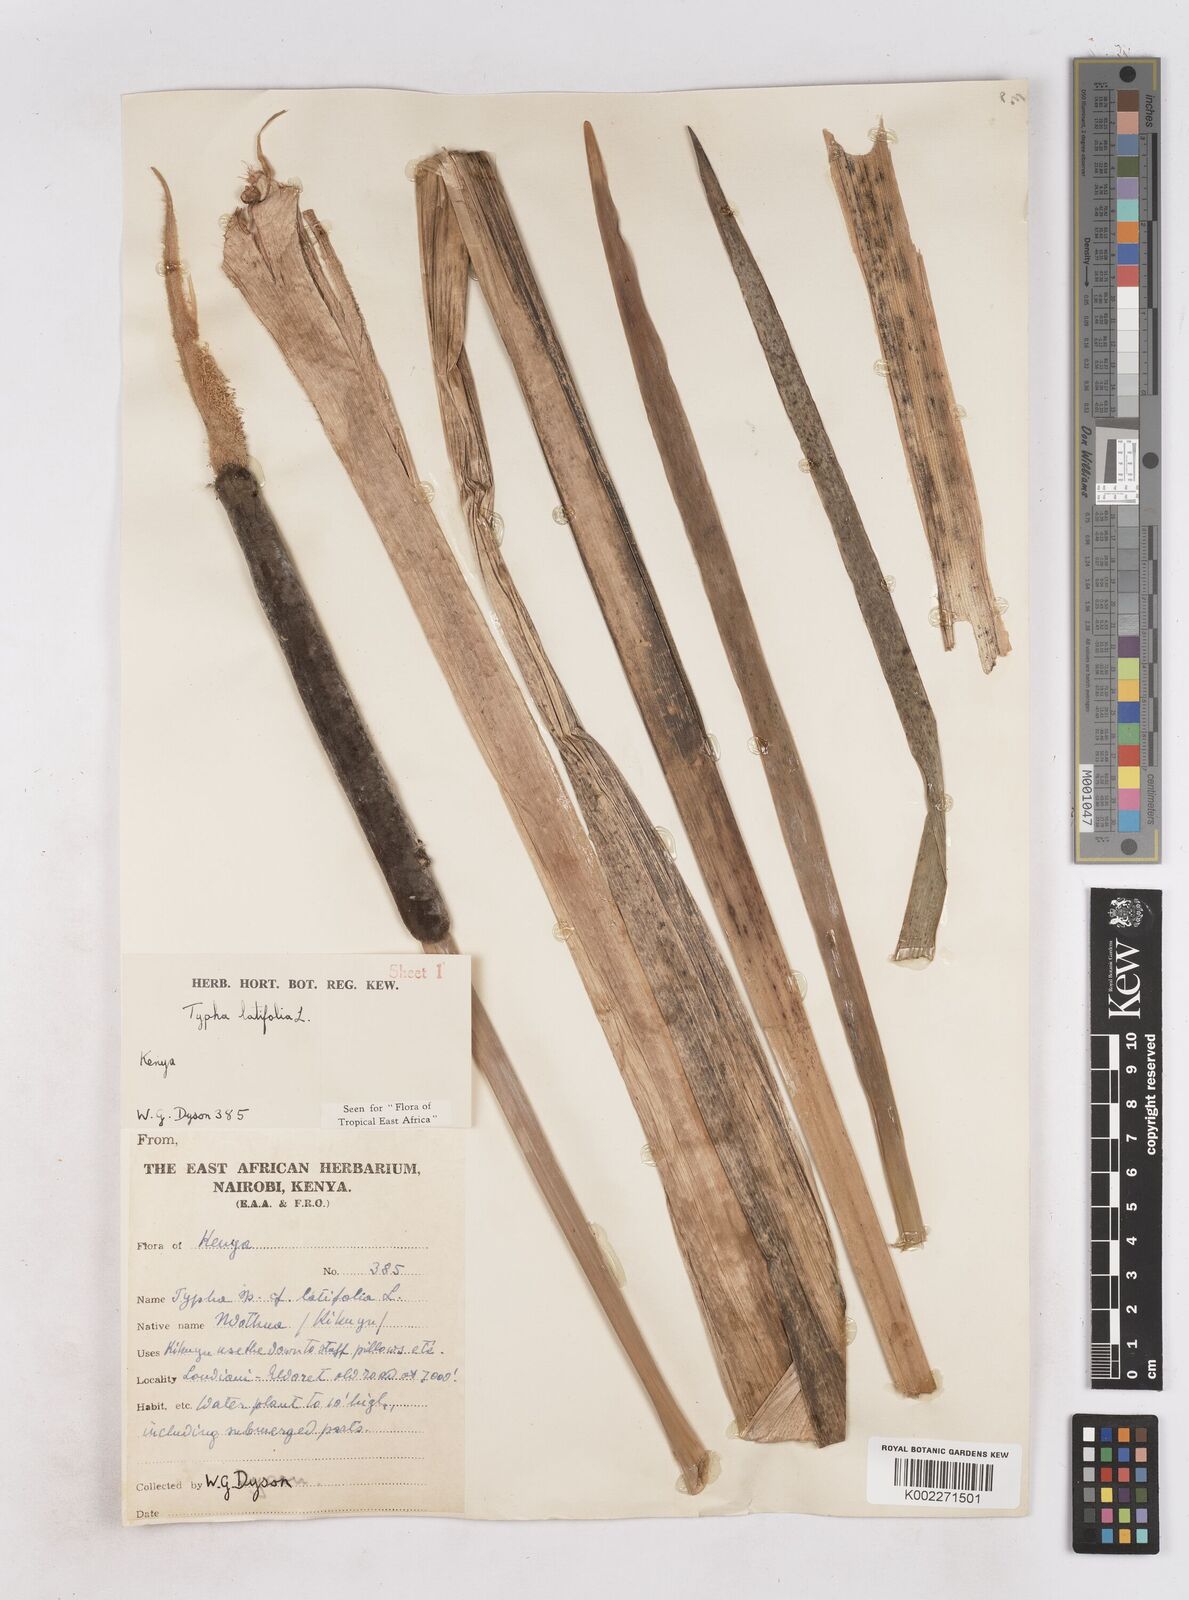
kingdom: Plantae
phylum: Tracheophyta
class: Liliopsida
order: Poales
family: Typhaceae
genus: Typha
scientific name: Typha latifolia
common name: Broadleaf cattail
